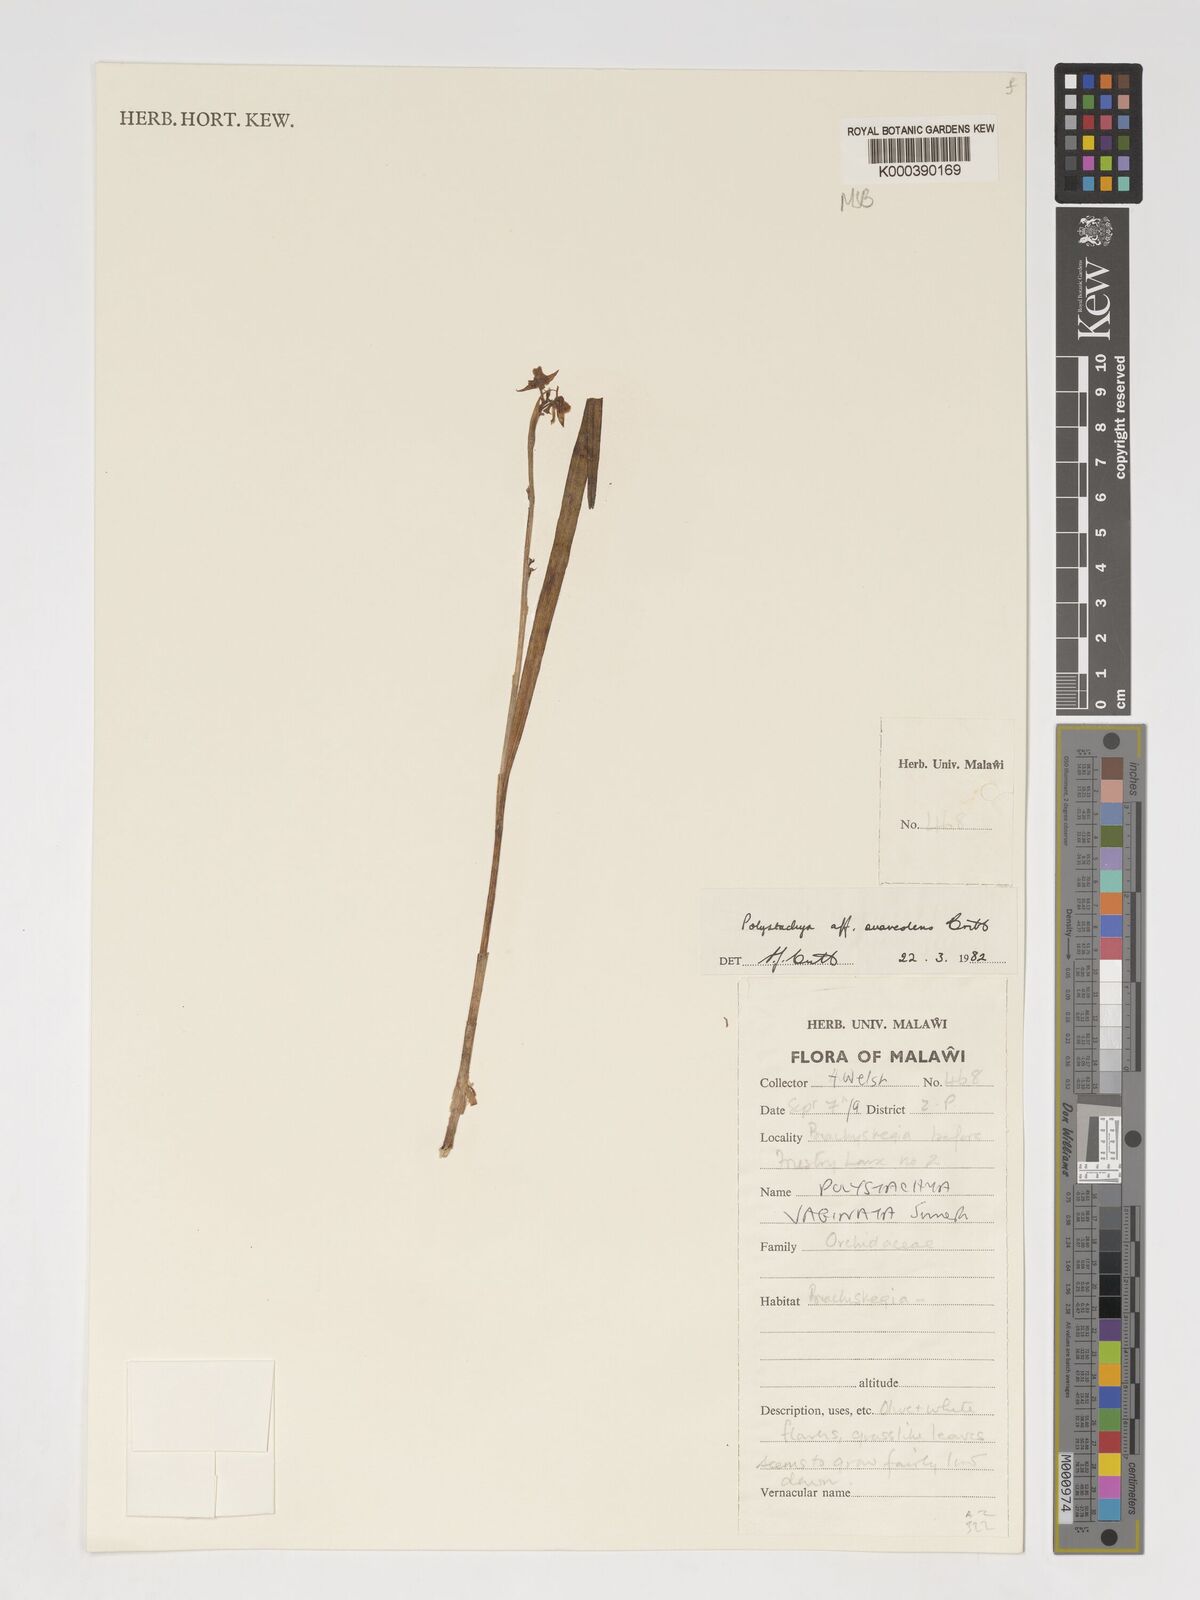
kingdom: Plantae
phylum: Tracheophyta
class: Liliopsida
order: Asparagales
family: Orchidaceae
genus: Polystachya
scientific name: Polystachya suaveolens
